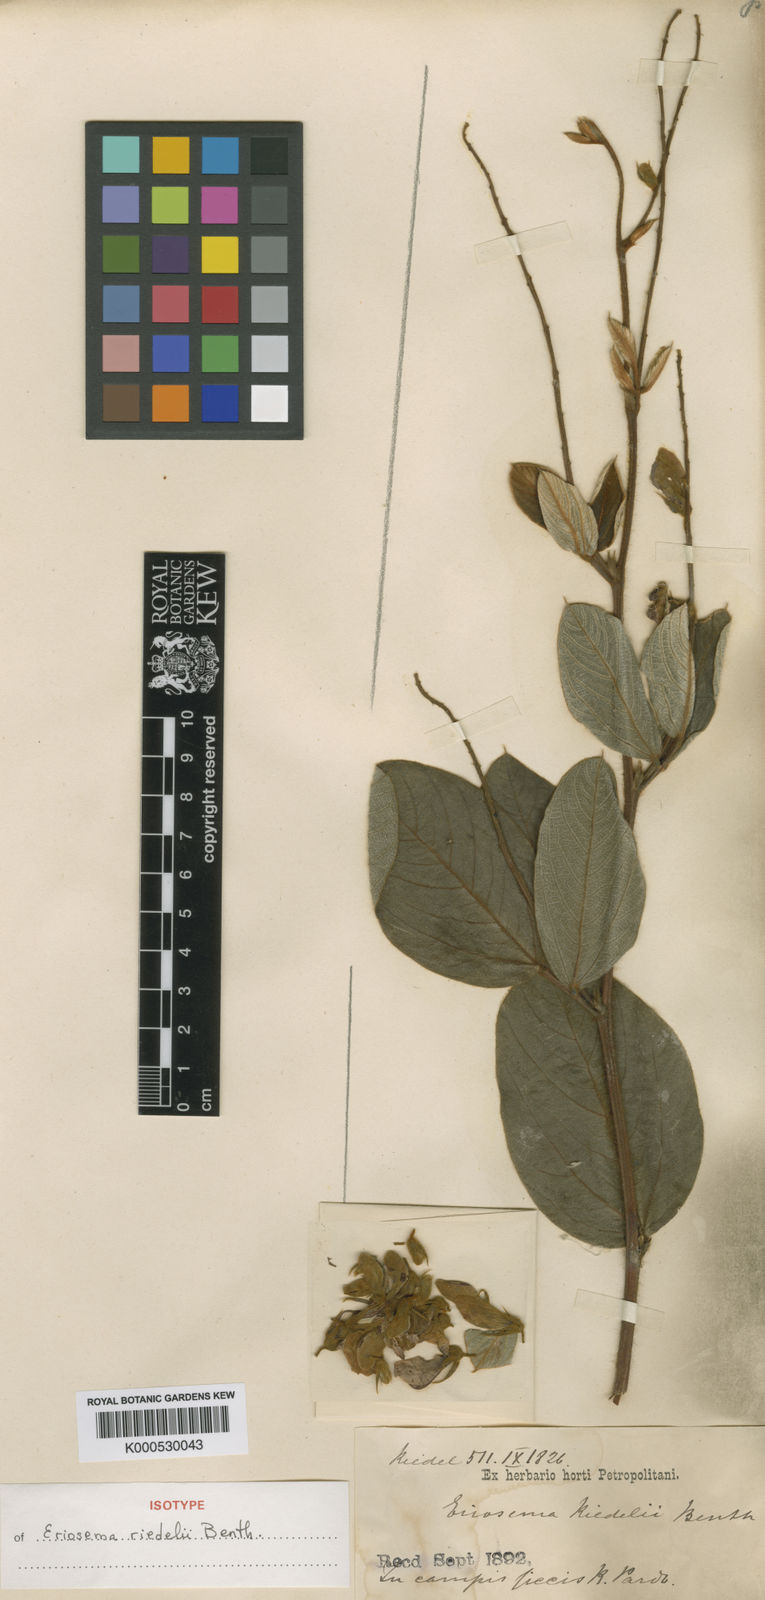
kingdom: Plantae
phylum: Tracheophyta
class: Magnoliopsida
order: Fabales
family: Fabaceae
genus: Eriosema
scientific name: Eriosema riedelii
